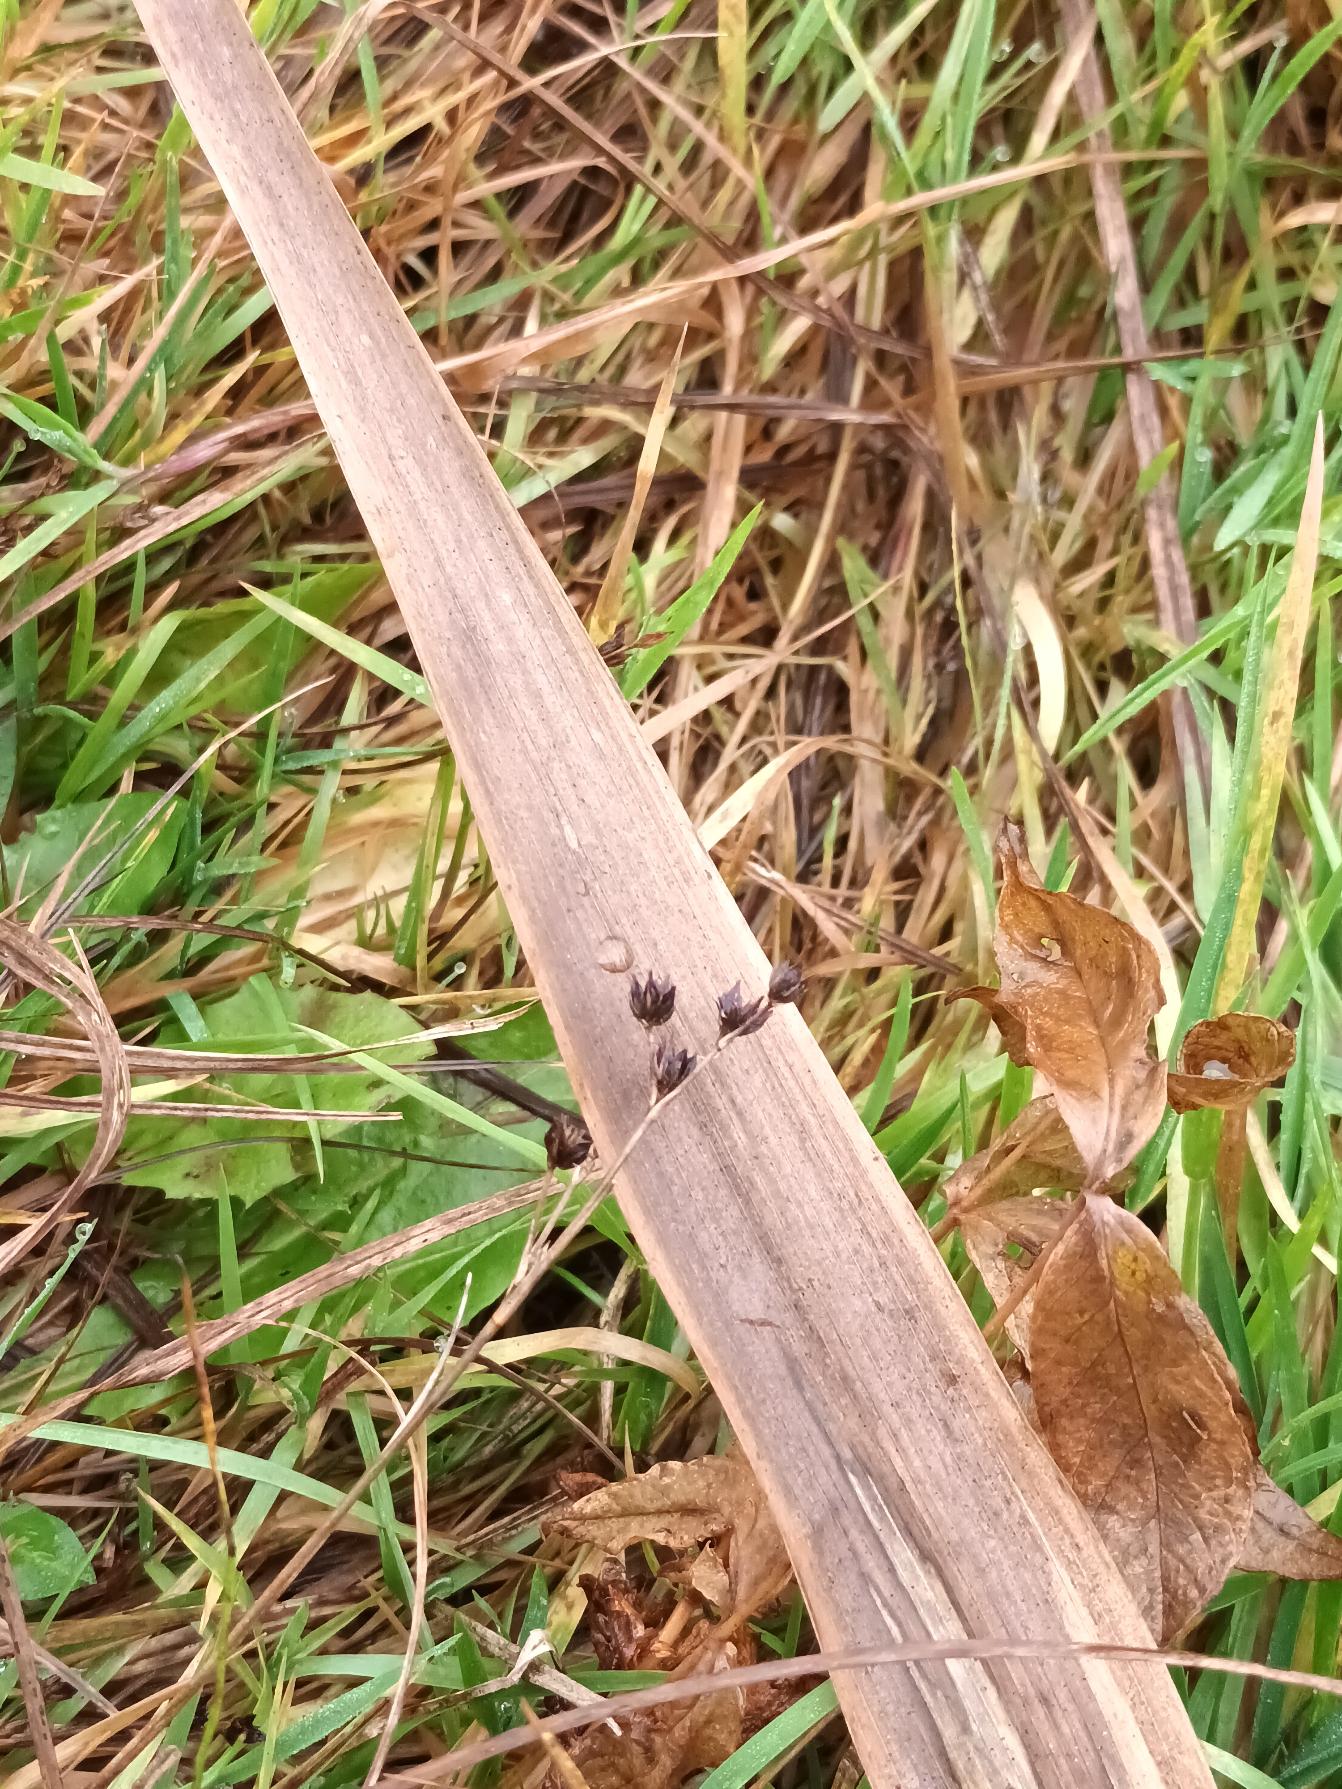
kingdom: Plantae
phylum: Tracheophyta
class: Liliopsida
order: Poales
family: Juncaceae
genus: Juncus
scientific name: Juncus articulatus
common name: Glanskapslet siv
